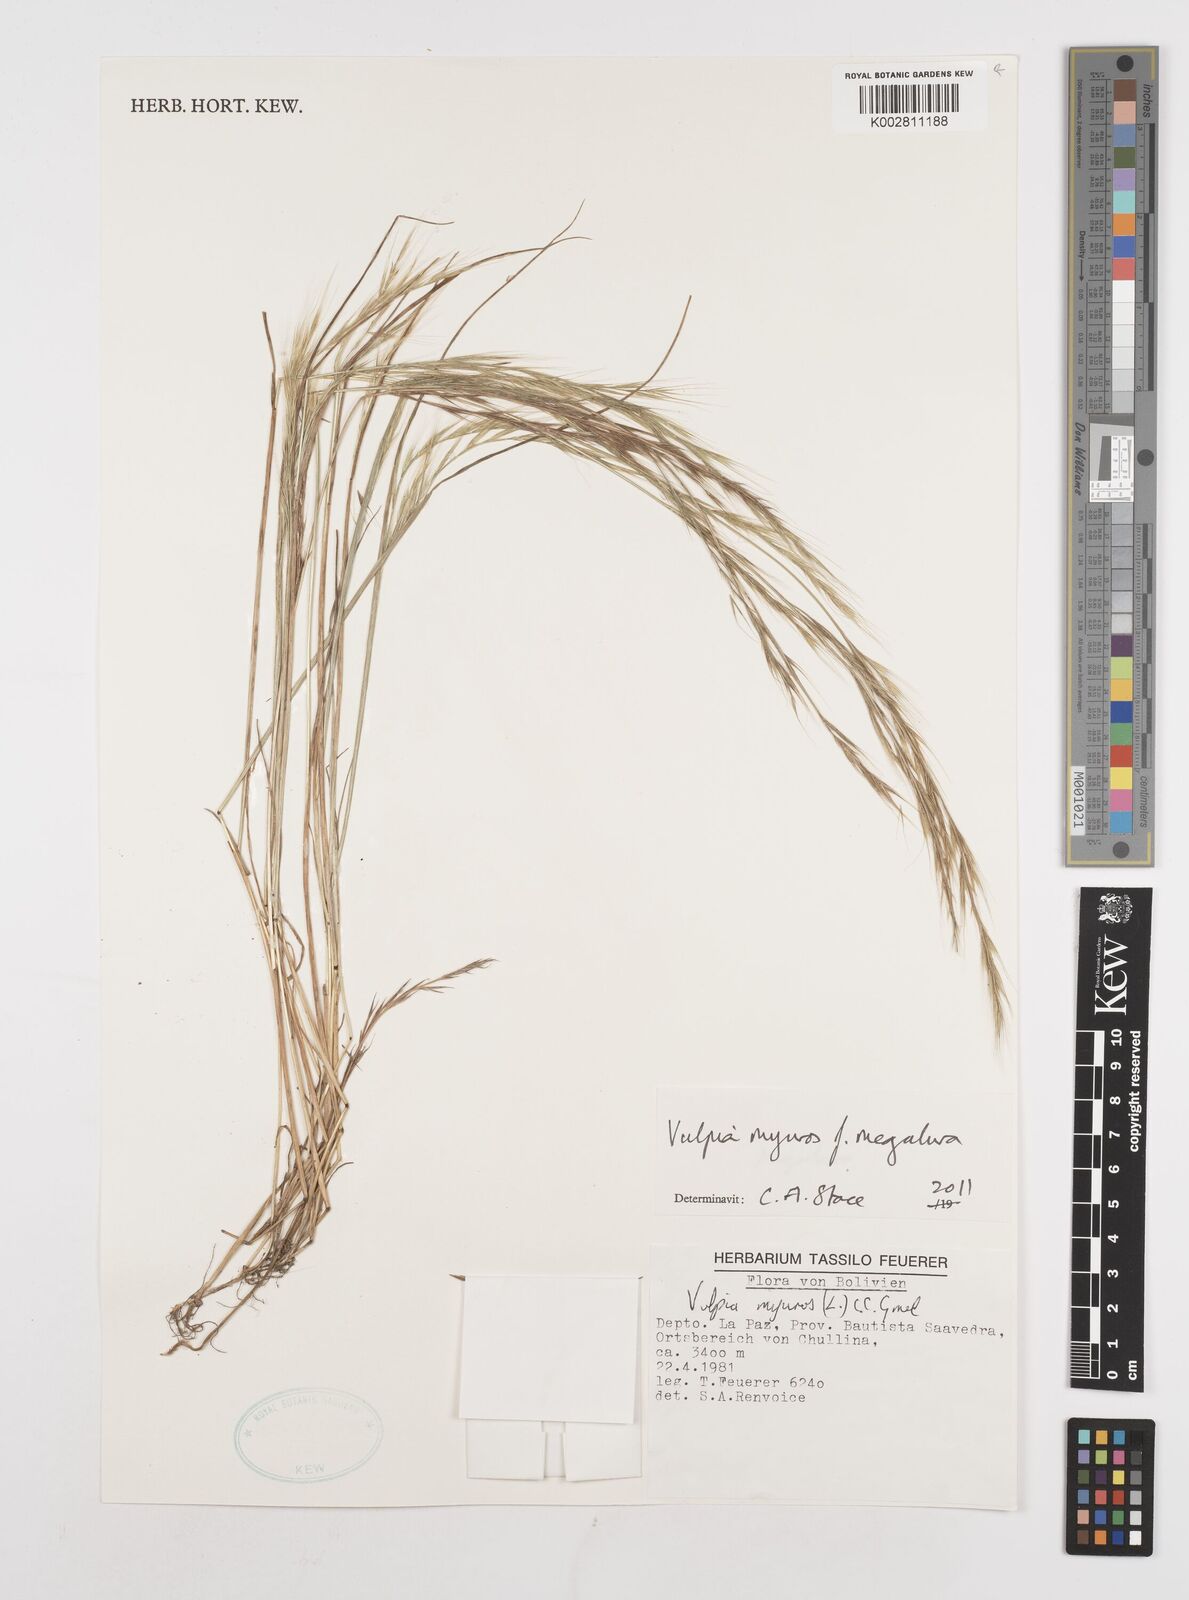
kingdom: Plantae
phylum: Tracheophyta
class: Liliopsida
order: Poales
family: Poaceae
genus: Festuca
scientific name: Festuca myuros
